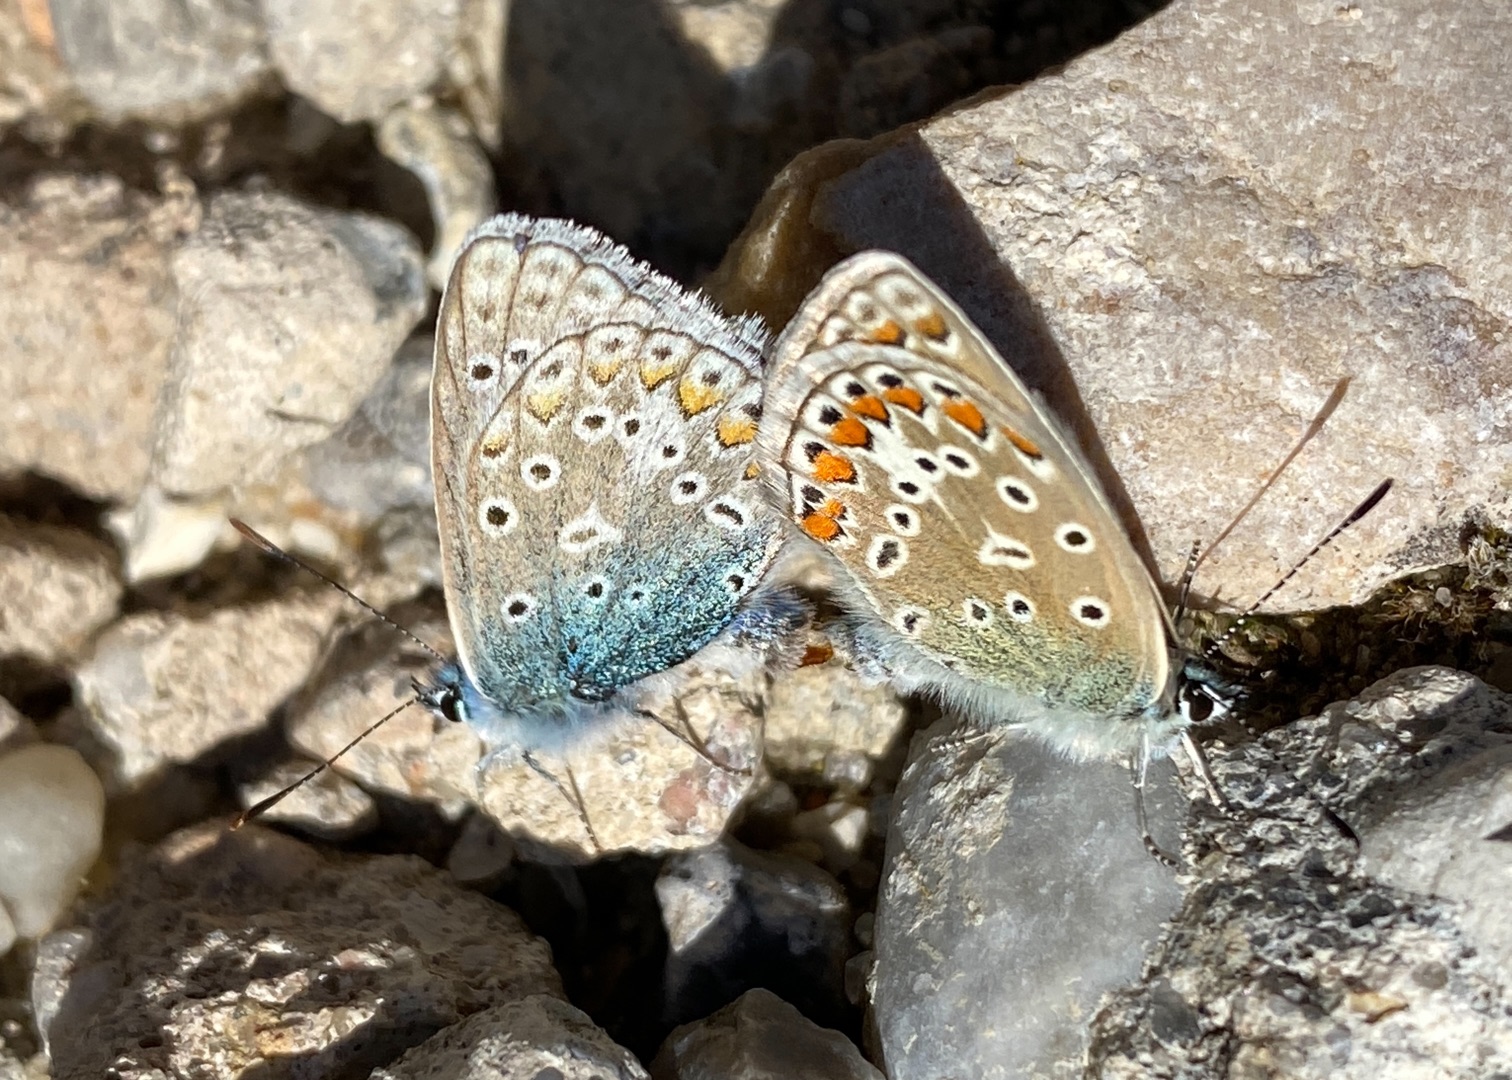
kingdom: Animalia
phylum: Arthropoda
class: Insecta
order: Lepidoptera
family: Lycaenidae
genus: Polyommatus
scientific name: Polyommatus icarus
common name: Almindelig blåfugl
